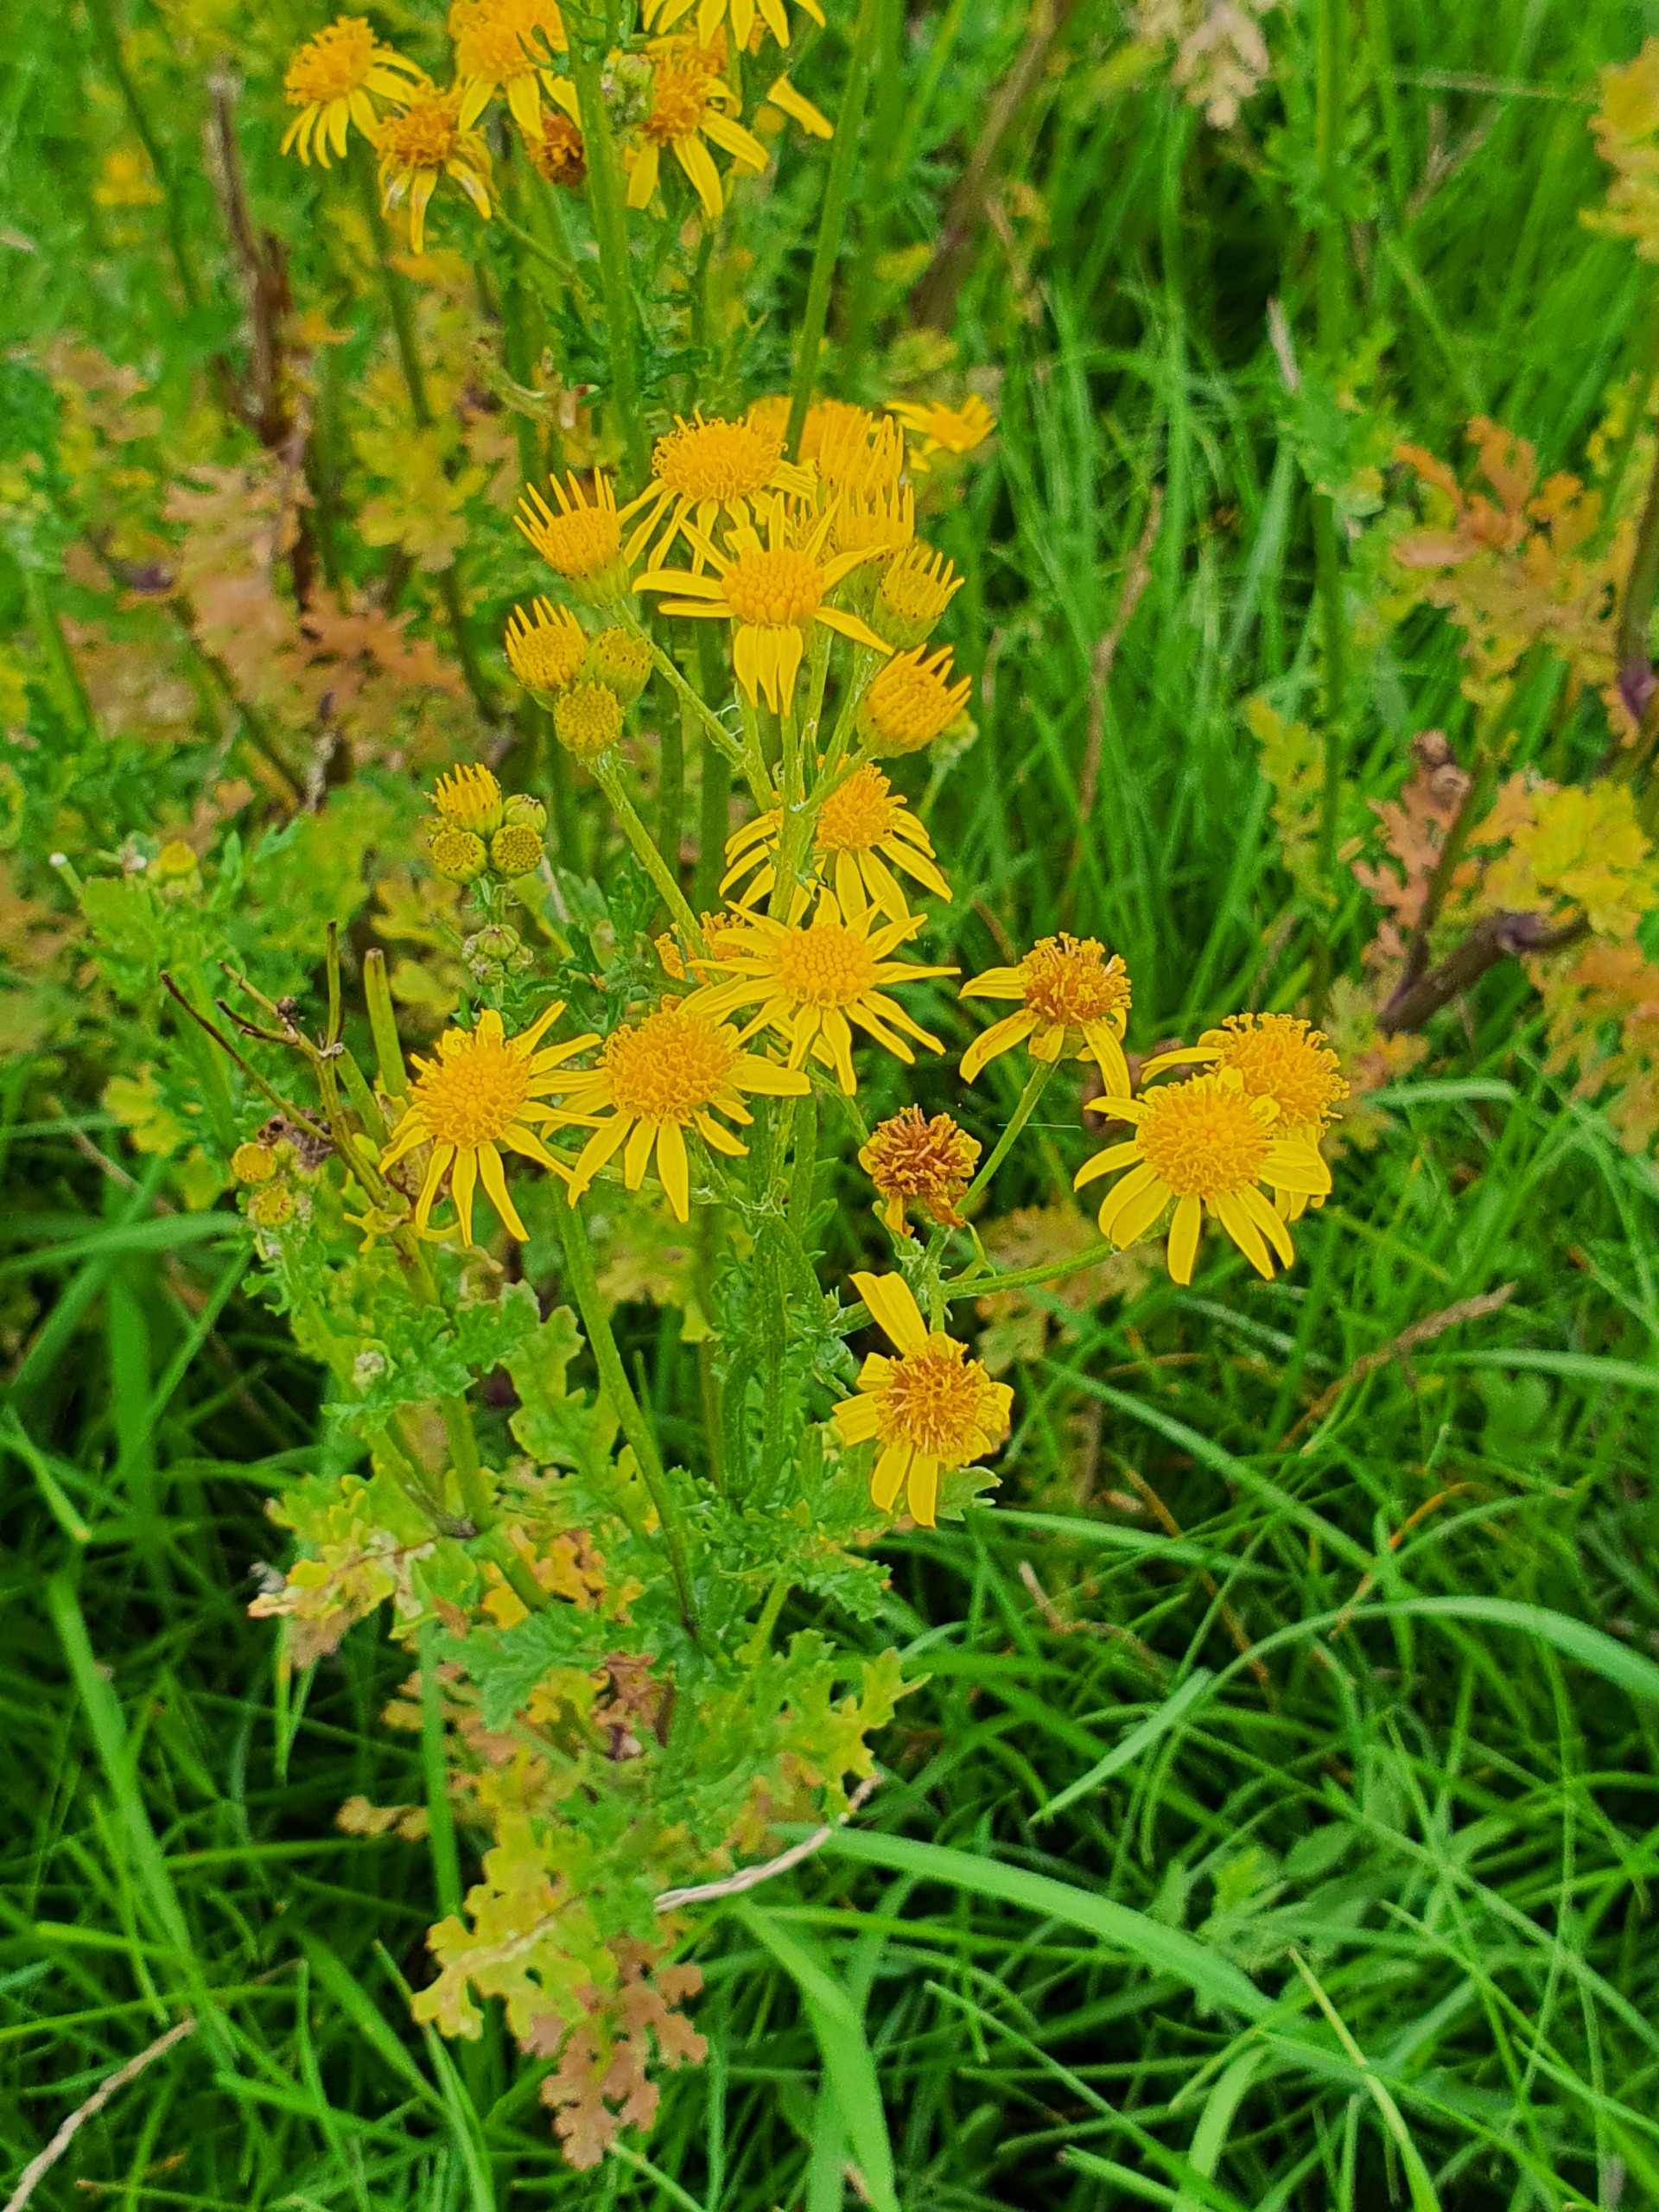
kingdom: Plantae
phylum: Tracheophyta
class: Magnoliopsida
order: Asterales
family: Asteraceae
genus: Jacobaea
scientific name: Jacobaea vulgaris
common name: Eng-brandbæger
